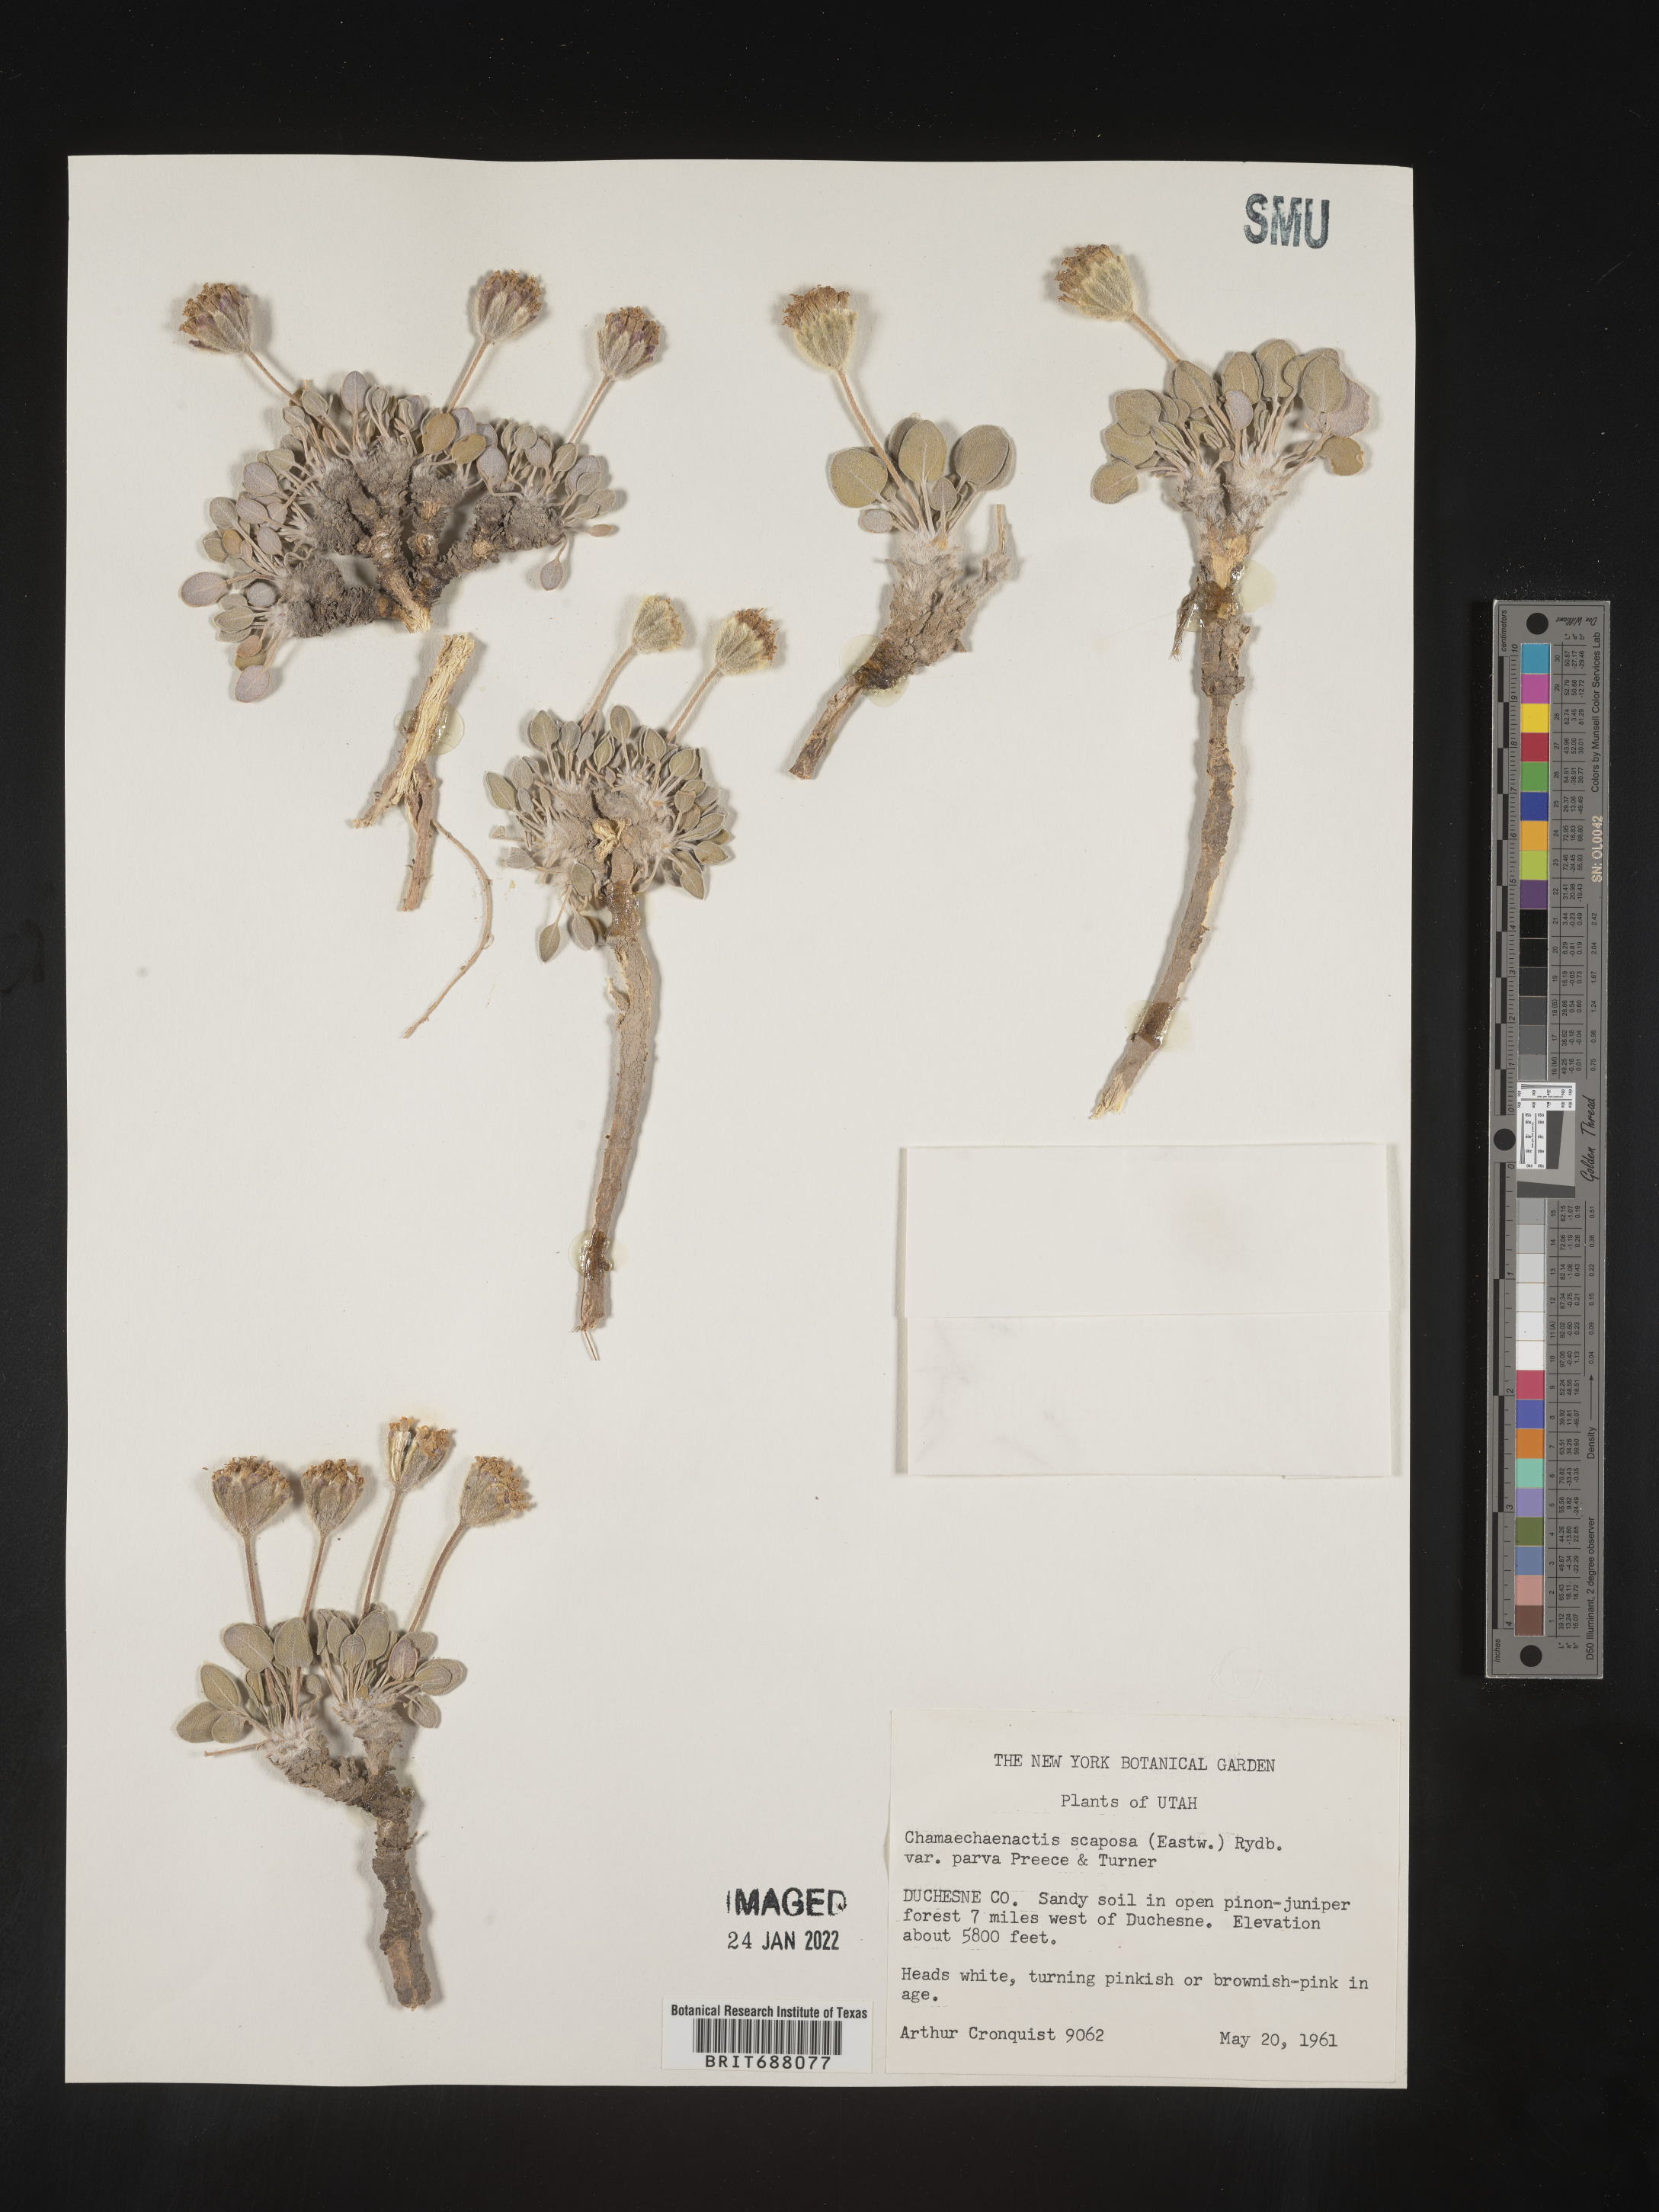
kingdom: Plantae
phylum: Tracheophyta
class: Magnoliopsida
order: Asterales
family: Asteraceae
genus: Chamaechaenactis
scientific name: Chamaechaenactis
